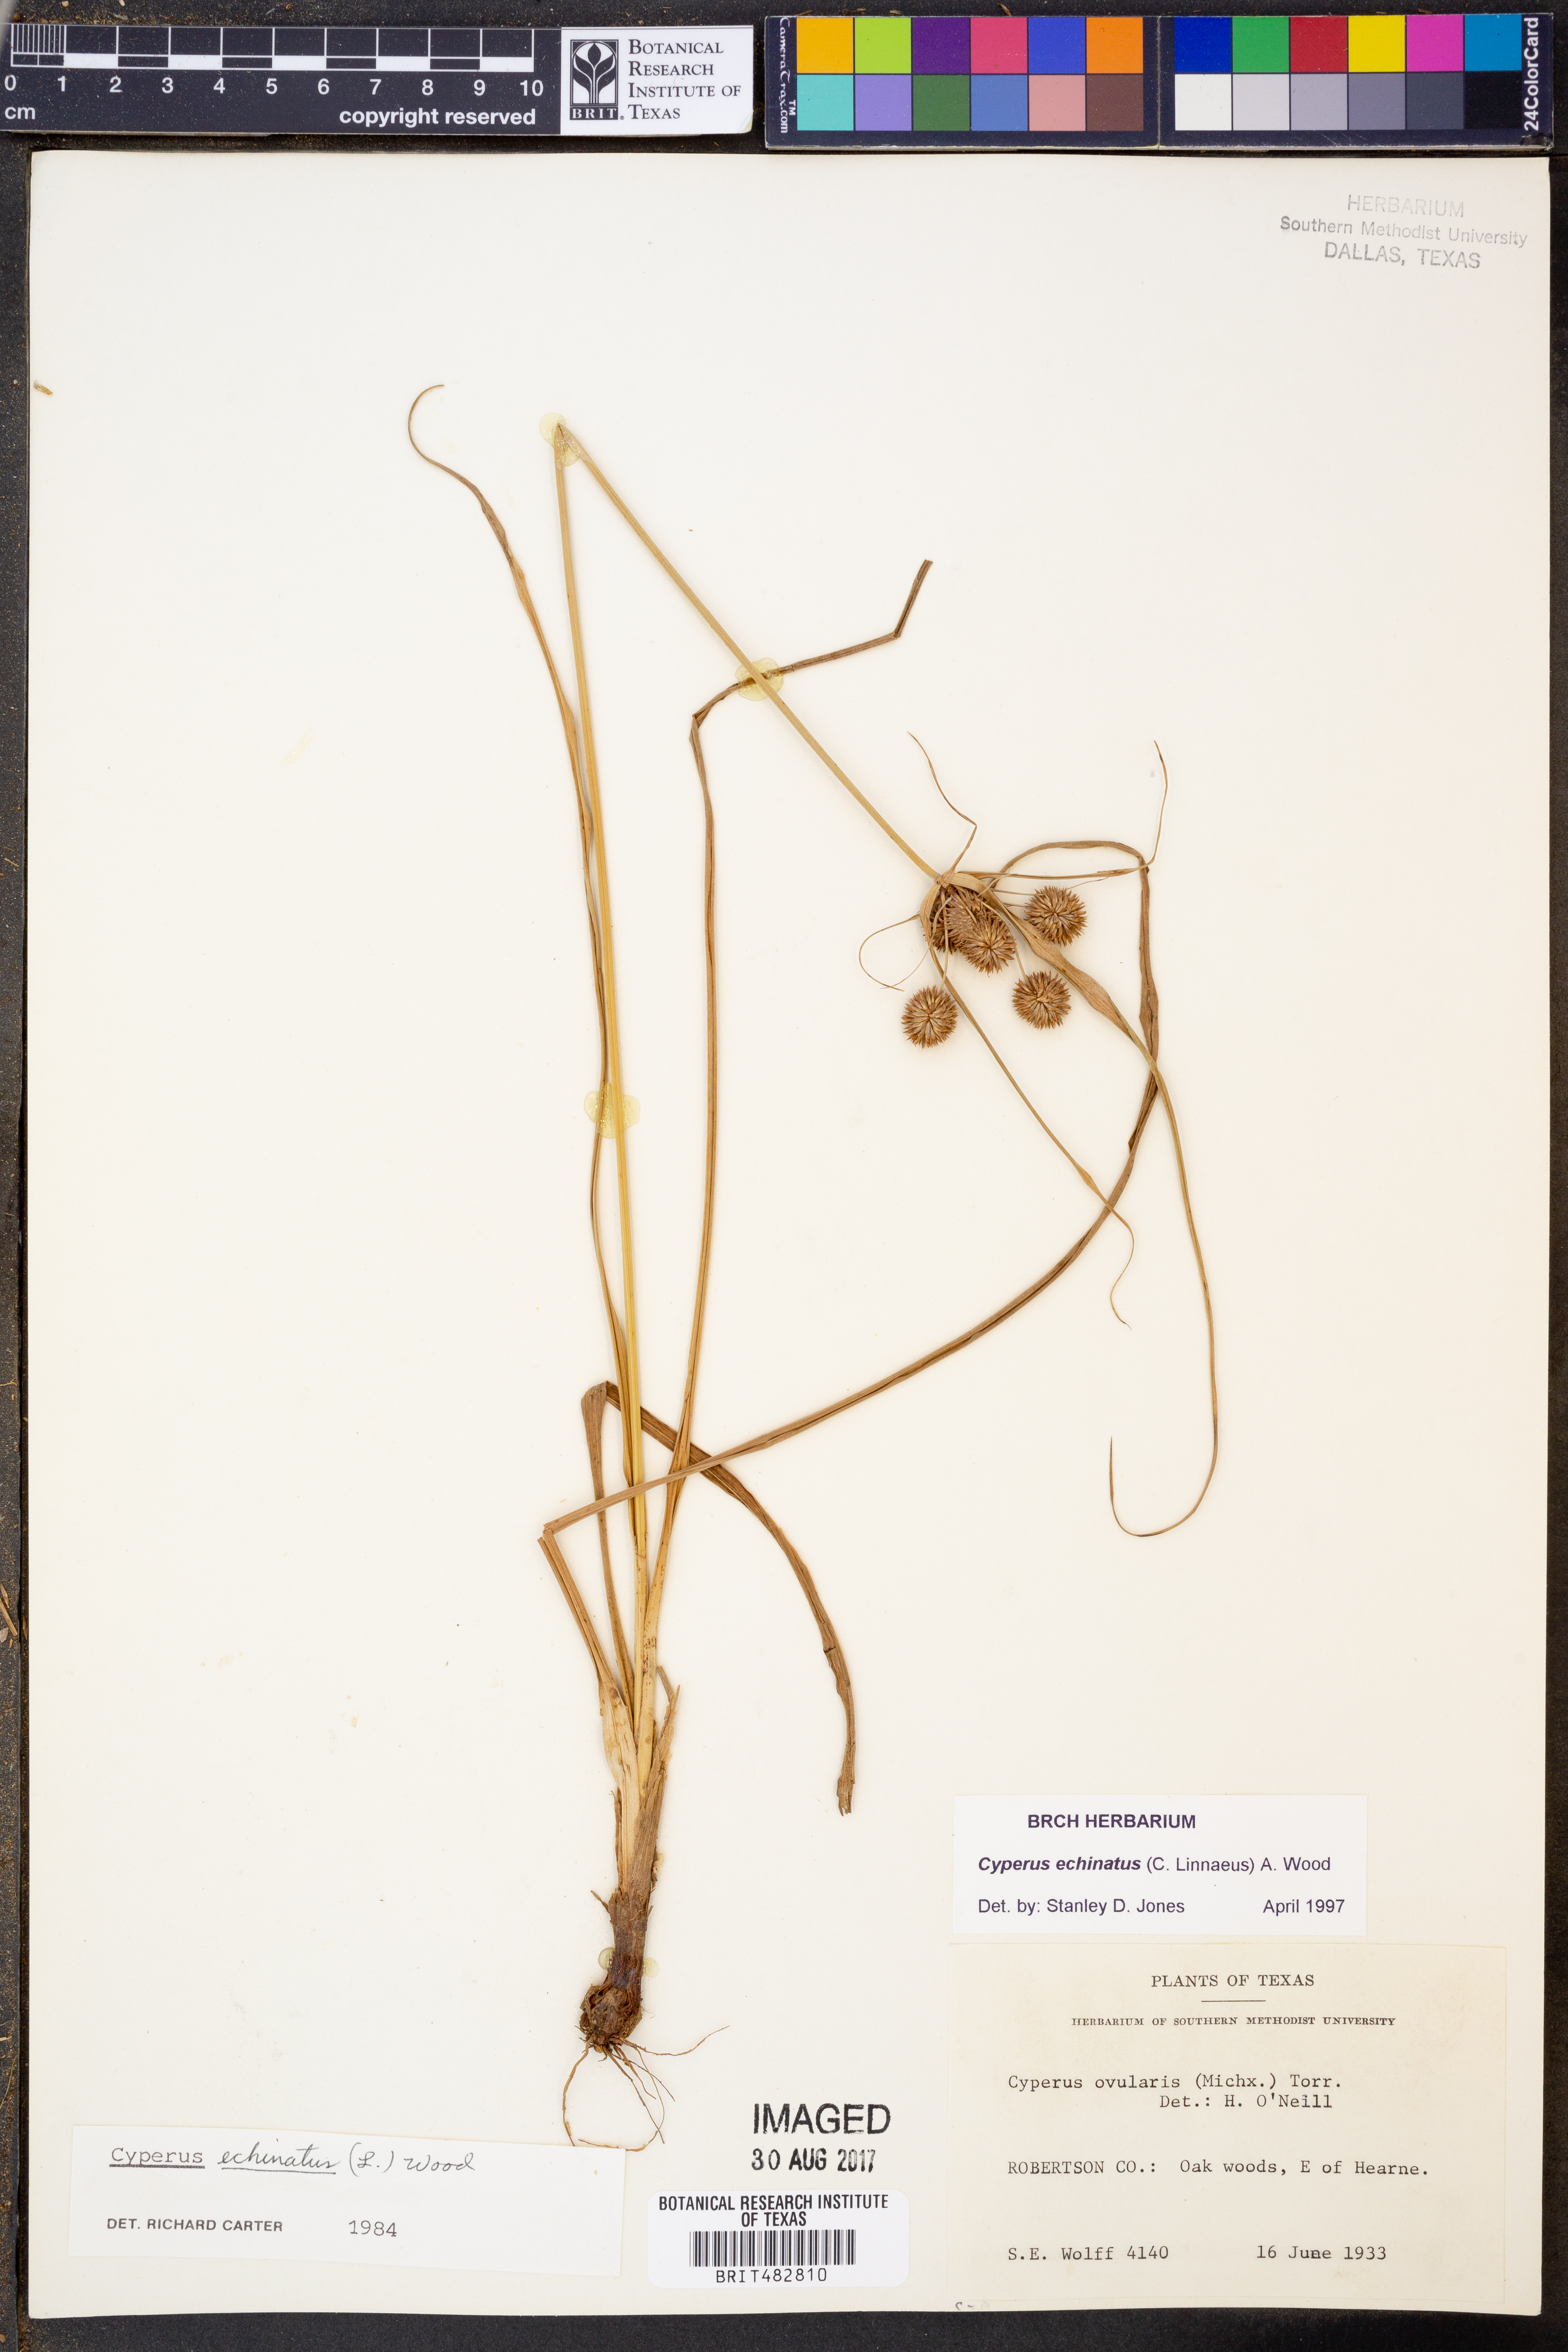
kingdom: Plantae
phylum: Tracheophyta
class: Liliopsida
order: Poales
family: Cyperaceae
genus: Cyperus
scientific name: Cyperus echinatus
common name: Teasel sedge
